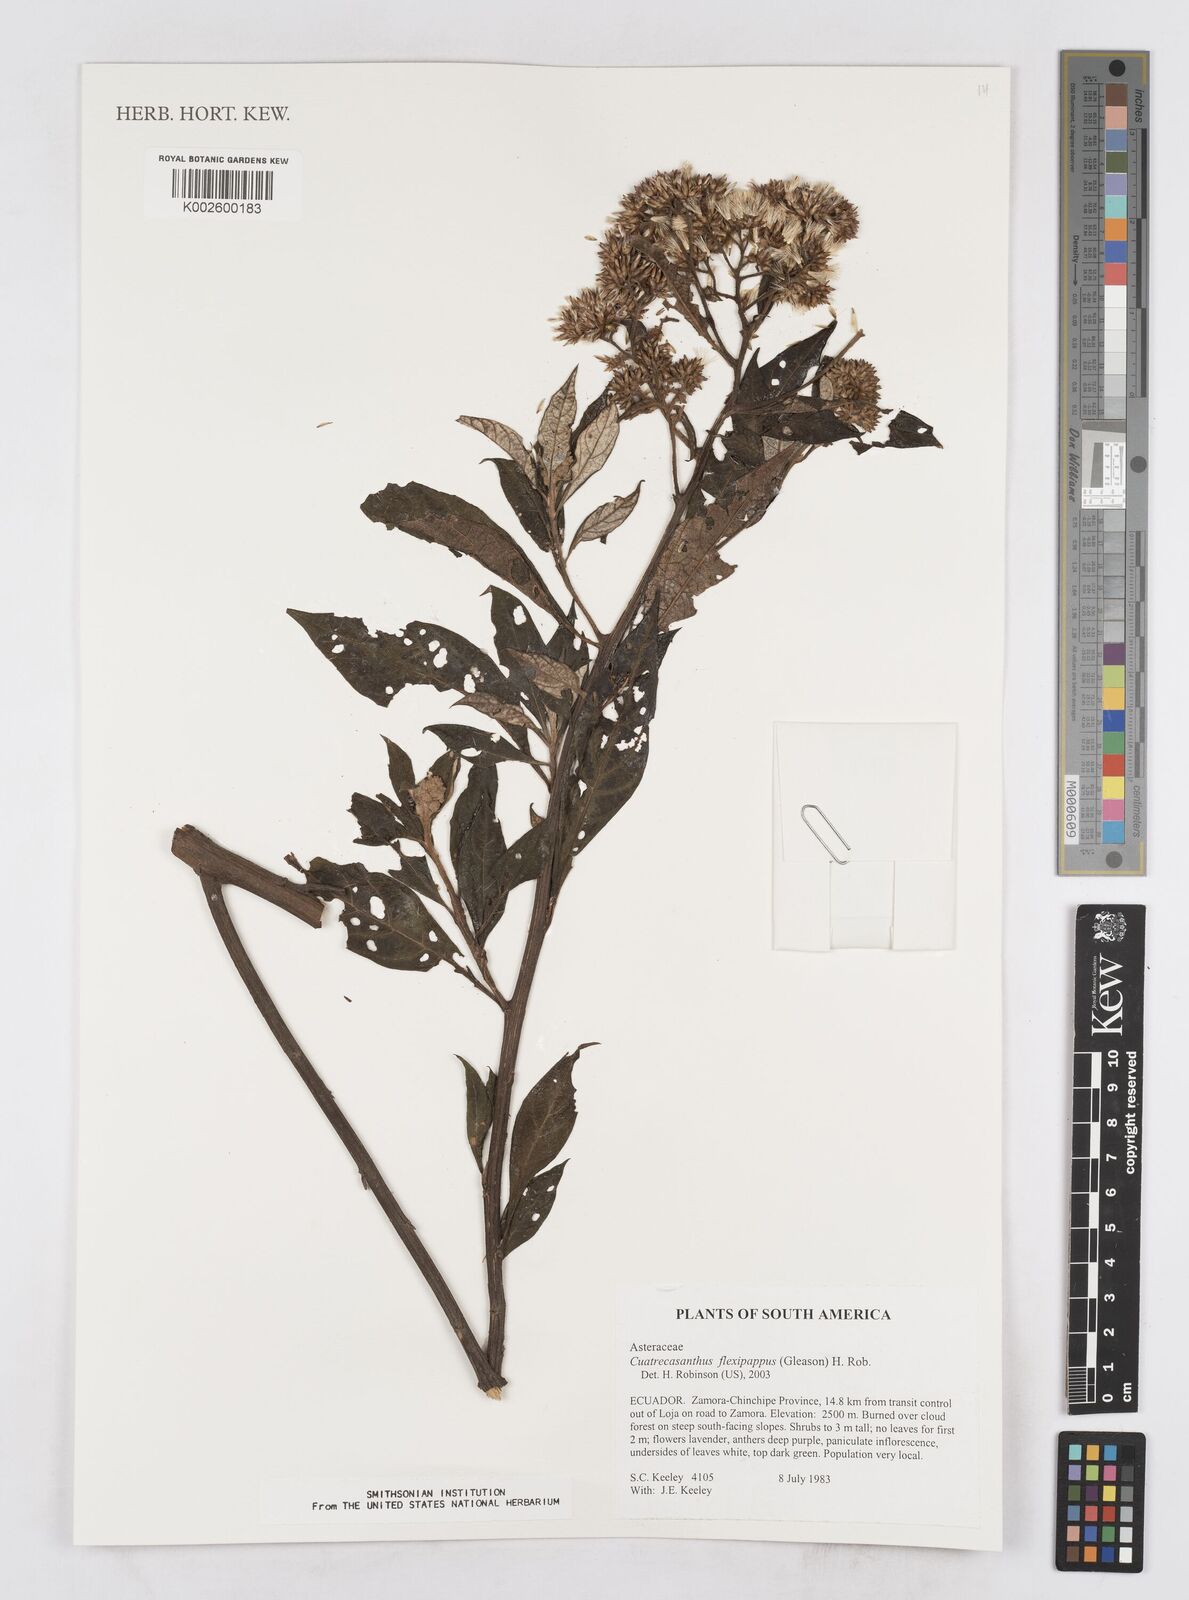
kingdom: Plantae
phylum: Tracheophyta
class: Magnoliopsida
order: Asterales
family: Asteraceae
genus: Cuatrecasanthus
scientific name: Cuatrecasanthus flexipappus
